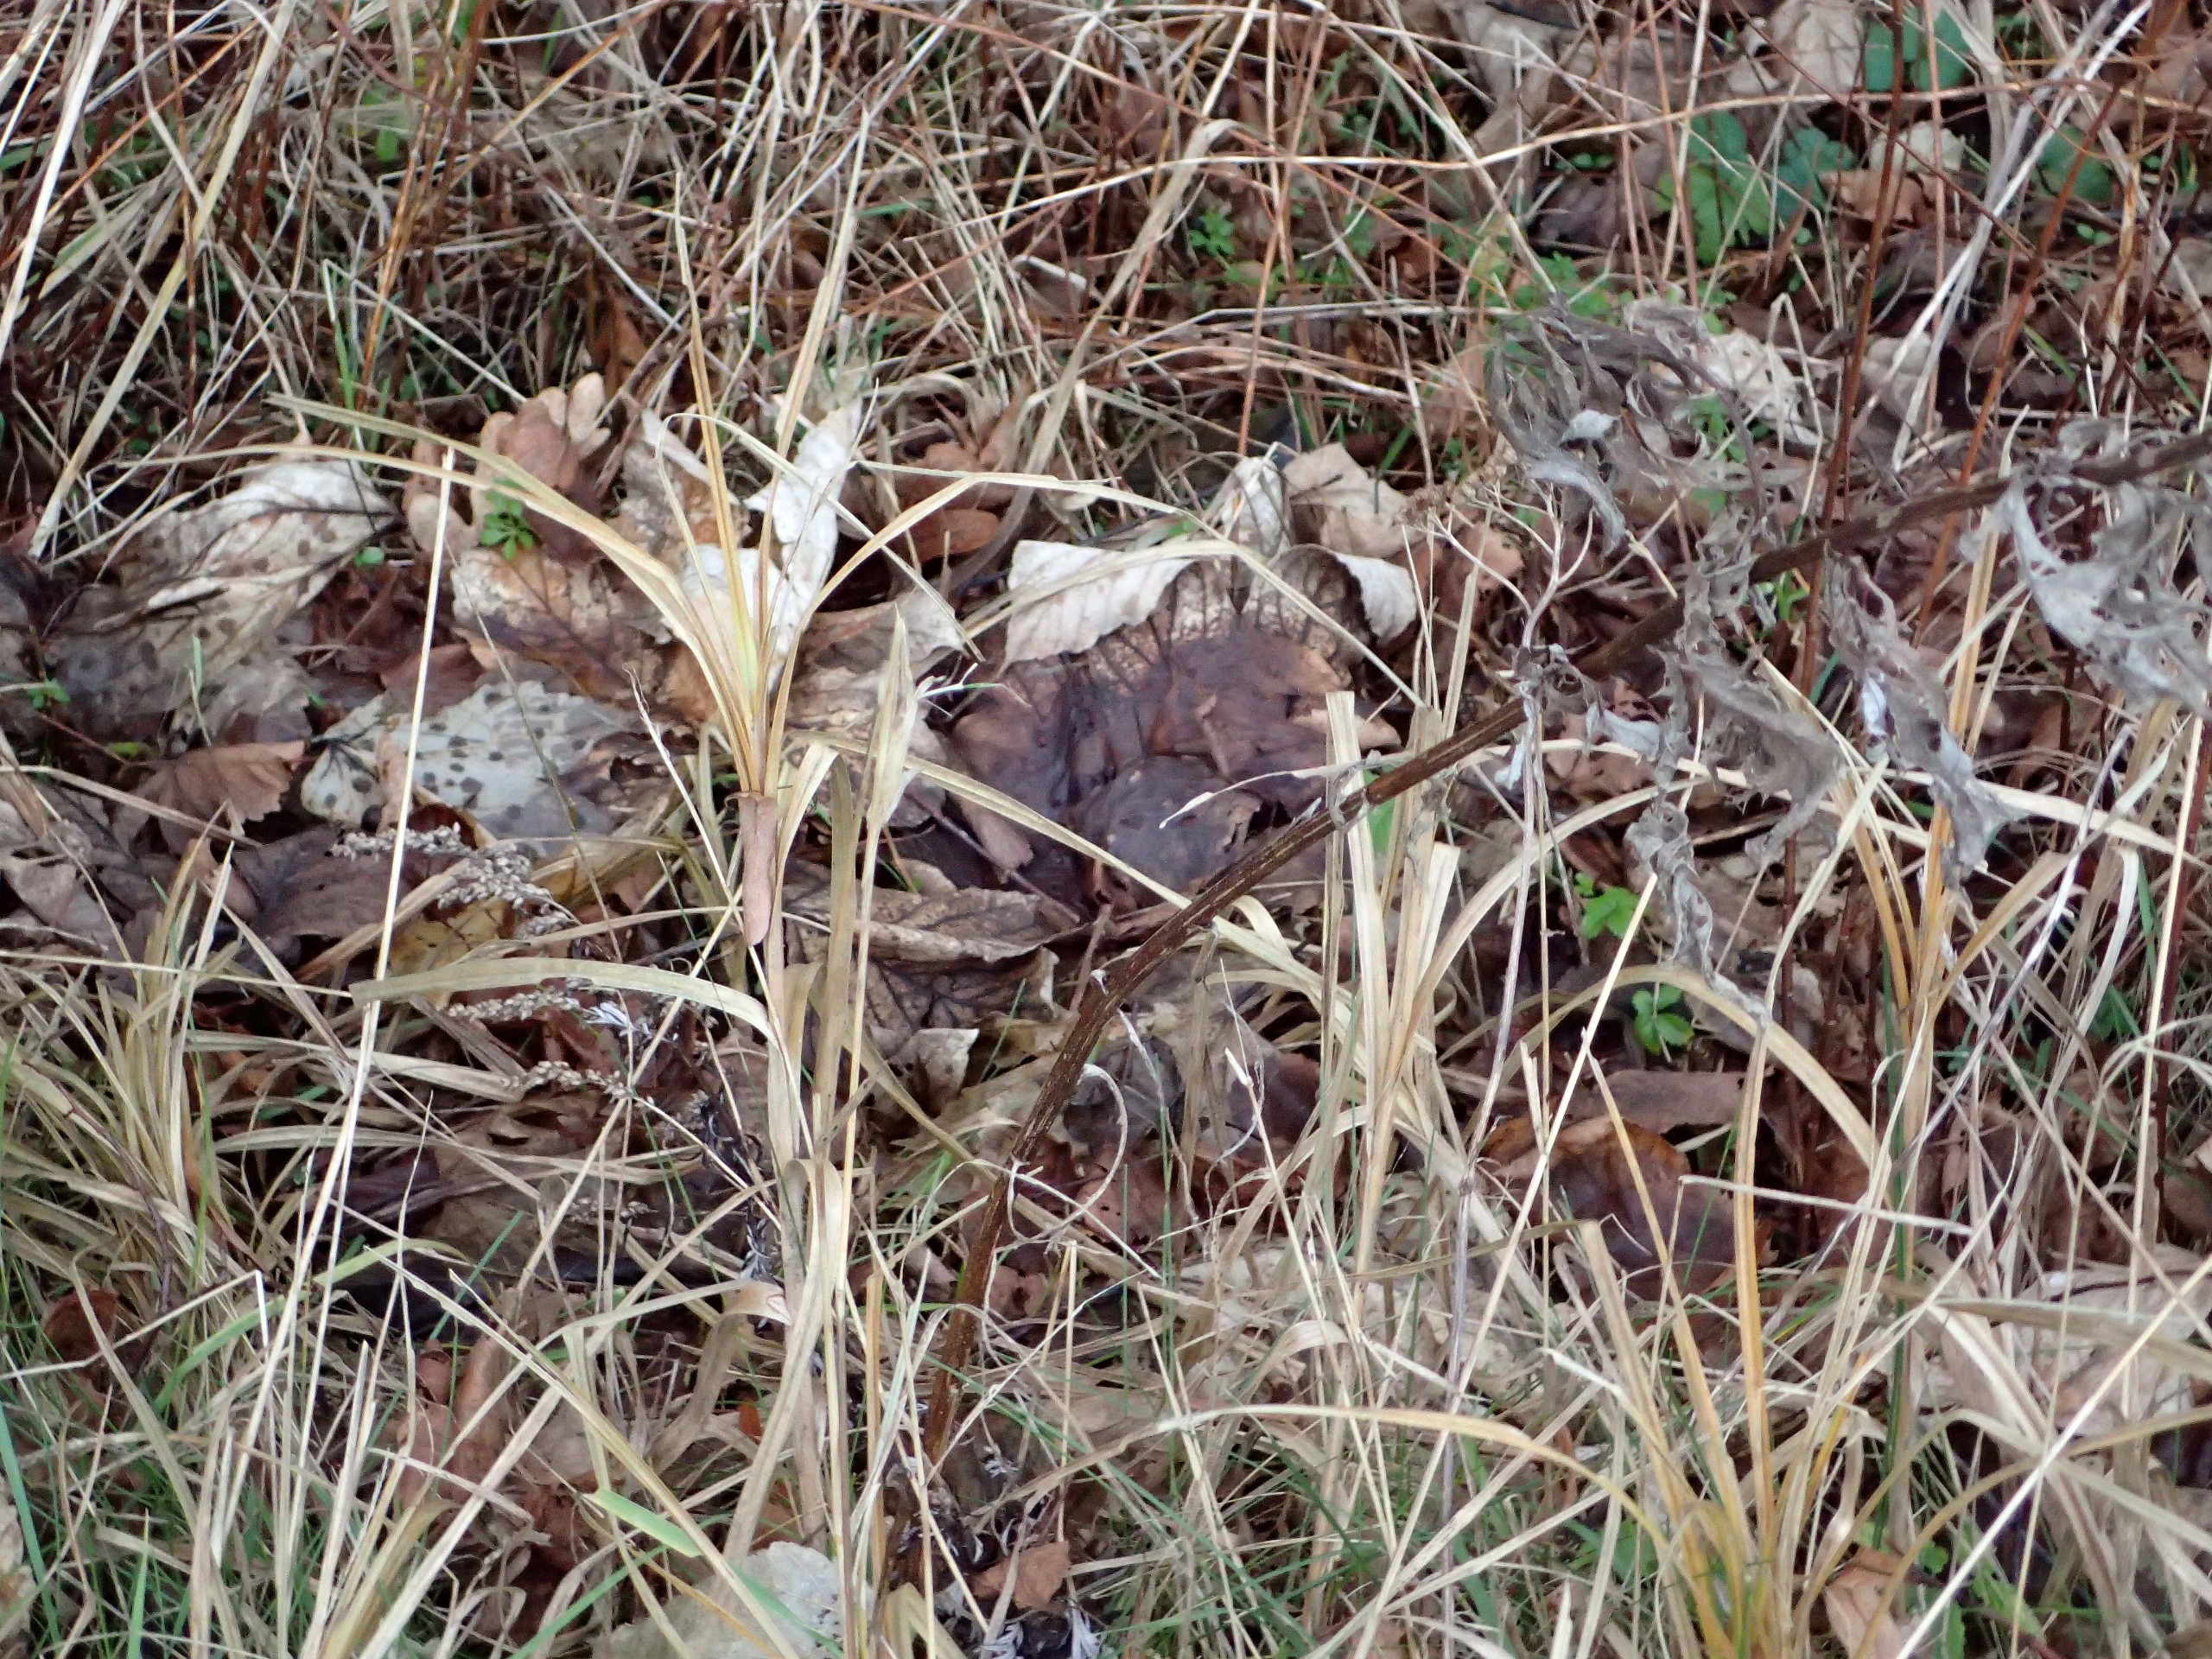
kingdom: Plantae
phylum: Tracheophyta
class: Liliopsida
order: Poales
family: Cyperaceae
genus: Carex
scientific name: Carex hirta
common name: Håret star
